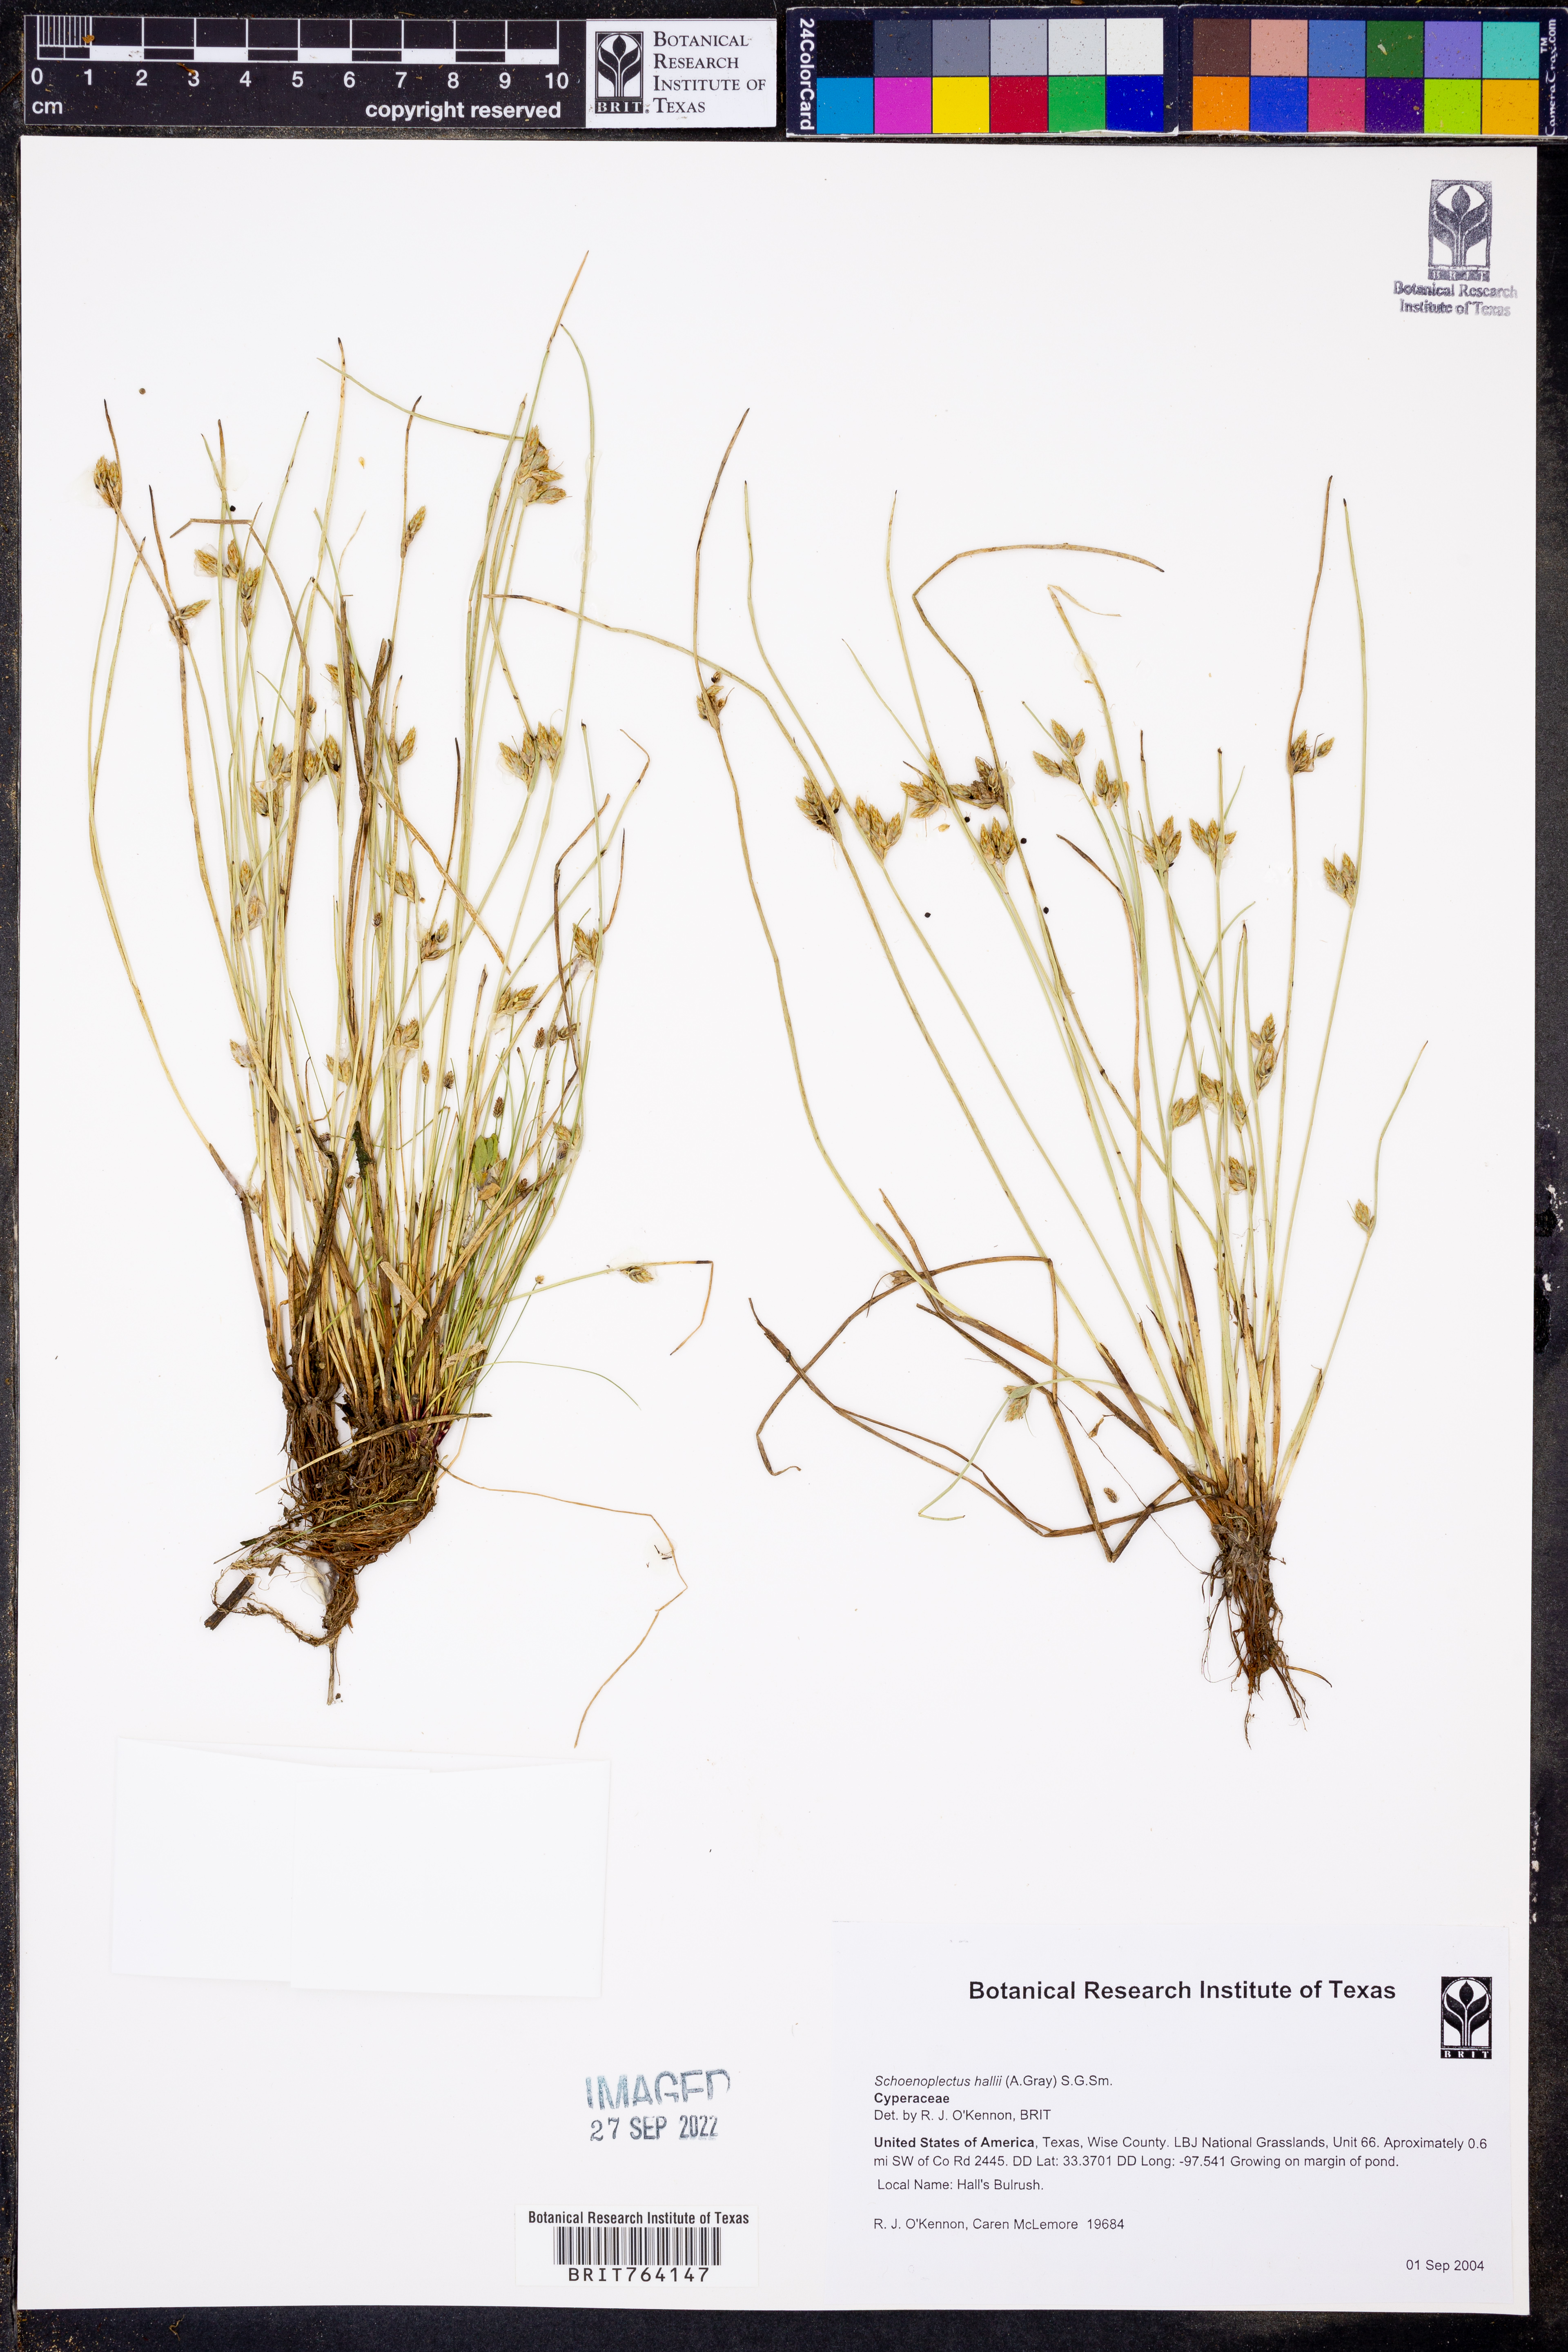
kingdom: Plantae
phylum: Tracheophyta
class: Liliopsida
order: Poales
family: Cyperaceae
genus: Schoenoplectiella
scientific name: Schoenoplectiella hallii
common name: Hall's bullrush
